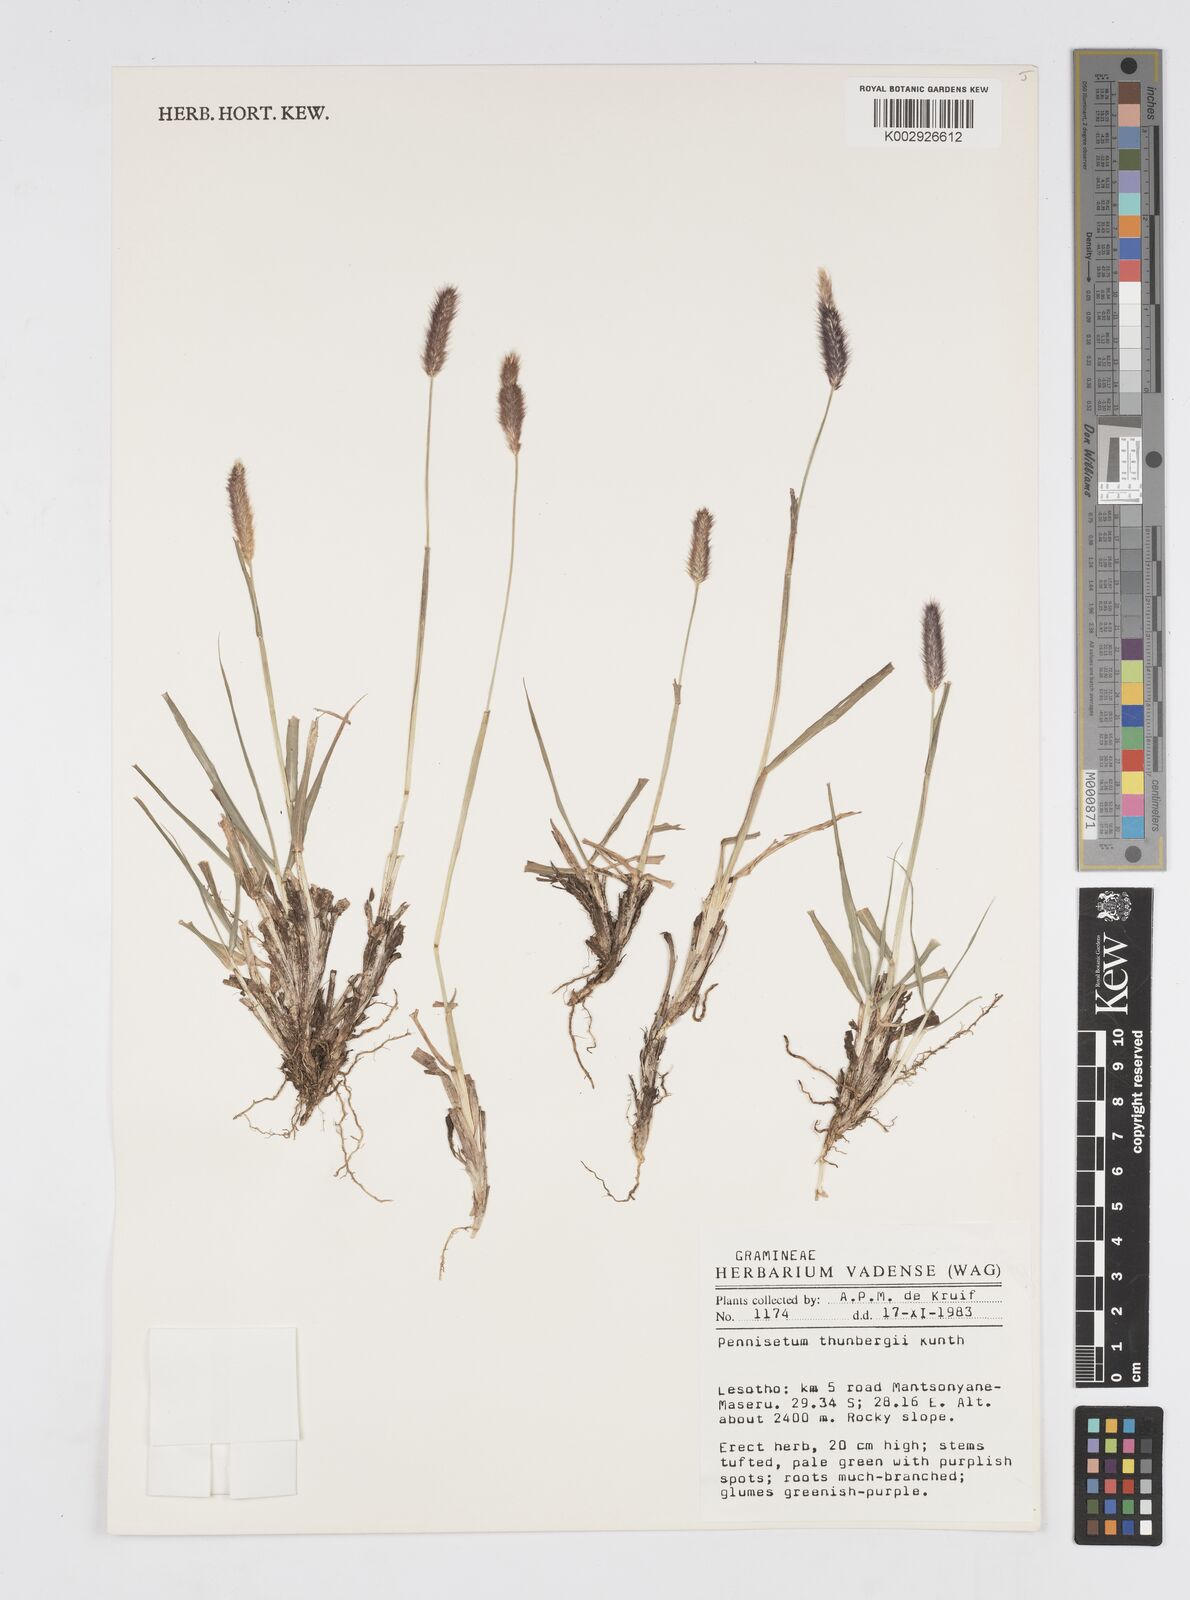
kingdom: Plantae
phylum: Tracheophyta
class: Liliopsida
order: Poales
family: Poaceae
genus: Cenchrus
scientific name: Cenchrus geniculatus
